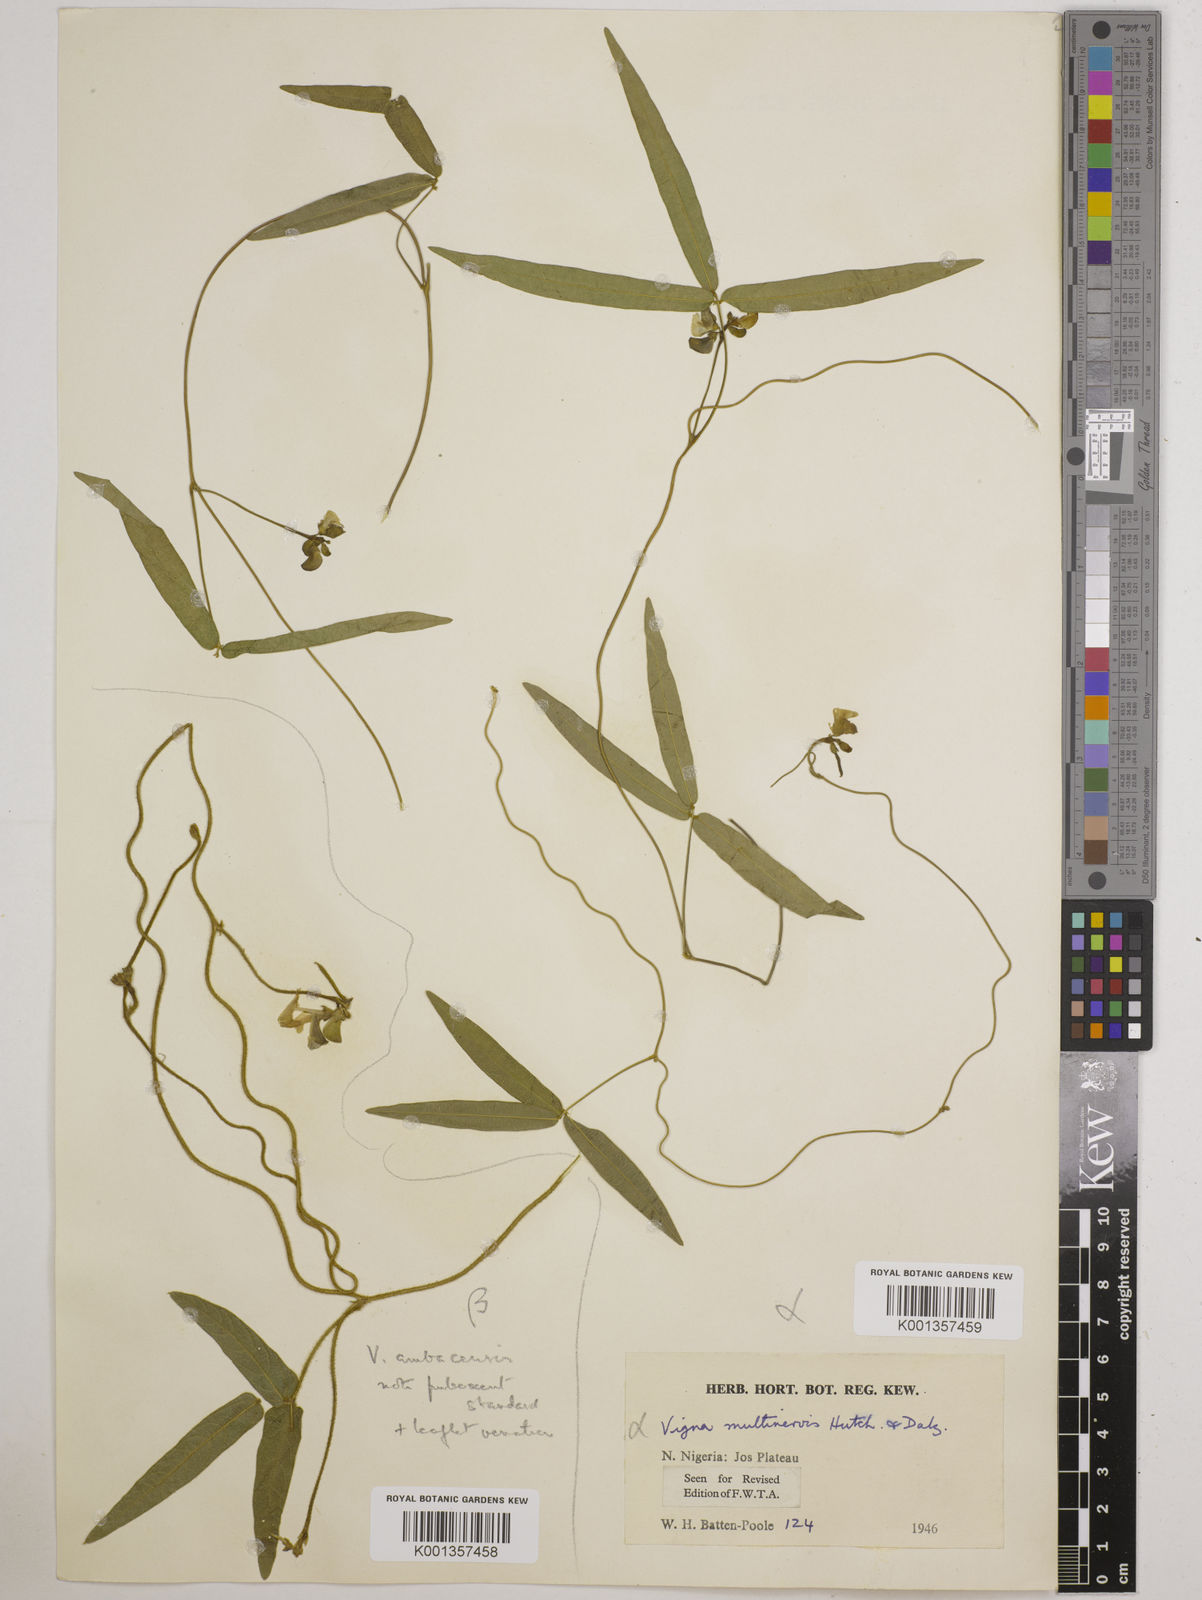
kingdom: Plantae
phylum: Tracheophyta
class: Magnoliopsida
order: Fabales
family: Fabaceae
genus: Vigna
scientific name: Vigna multinervis
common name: Fula-pulaar
